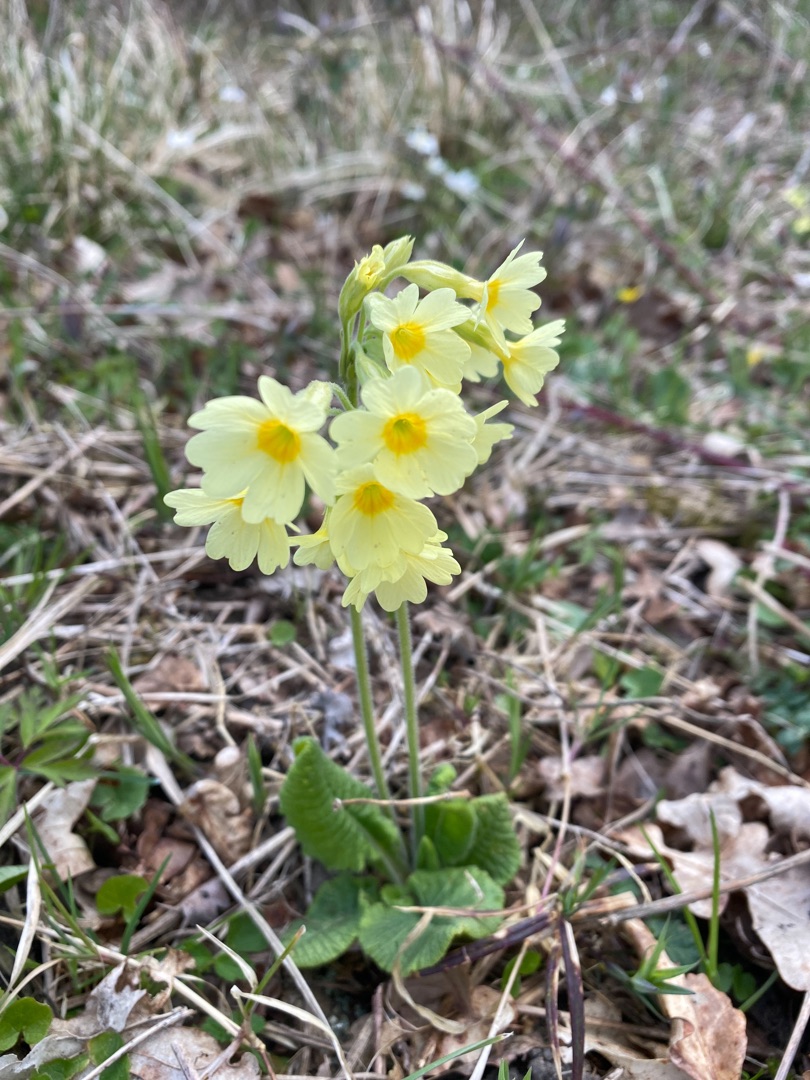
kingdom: Plantae
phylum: Tracheophyta
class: Magnoliopsida
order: Ericales
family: Primulaceae
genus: Primula
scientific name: Primula elatior
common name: Fladkravet kodriver
